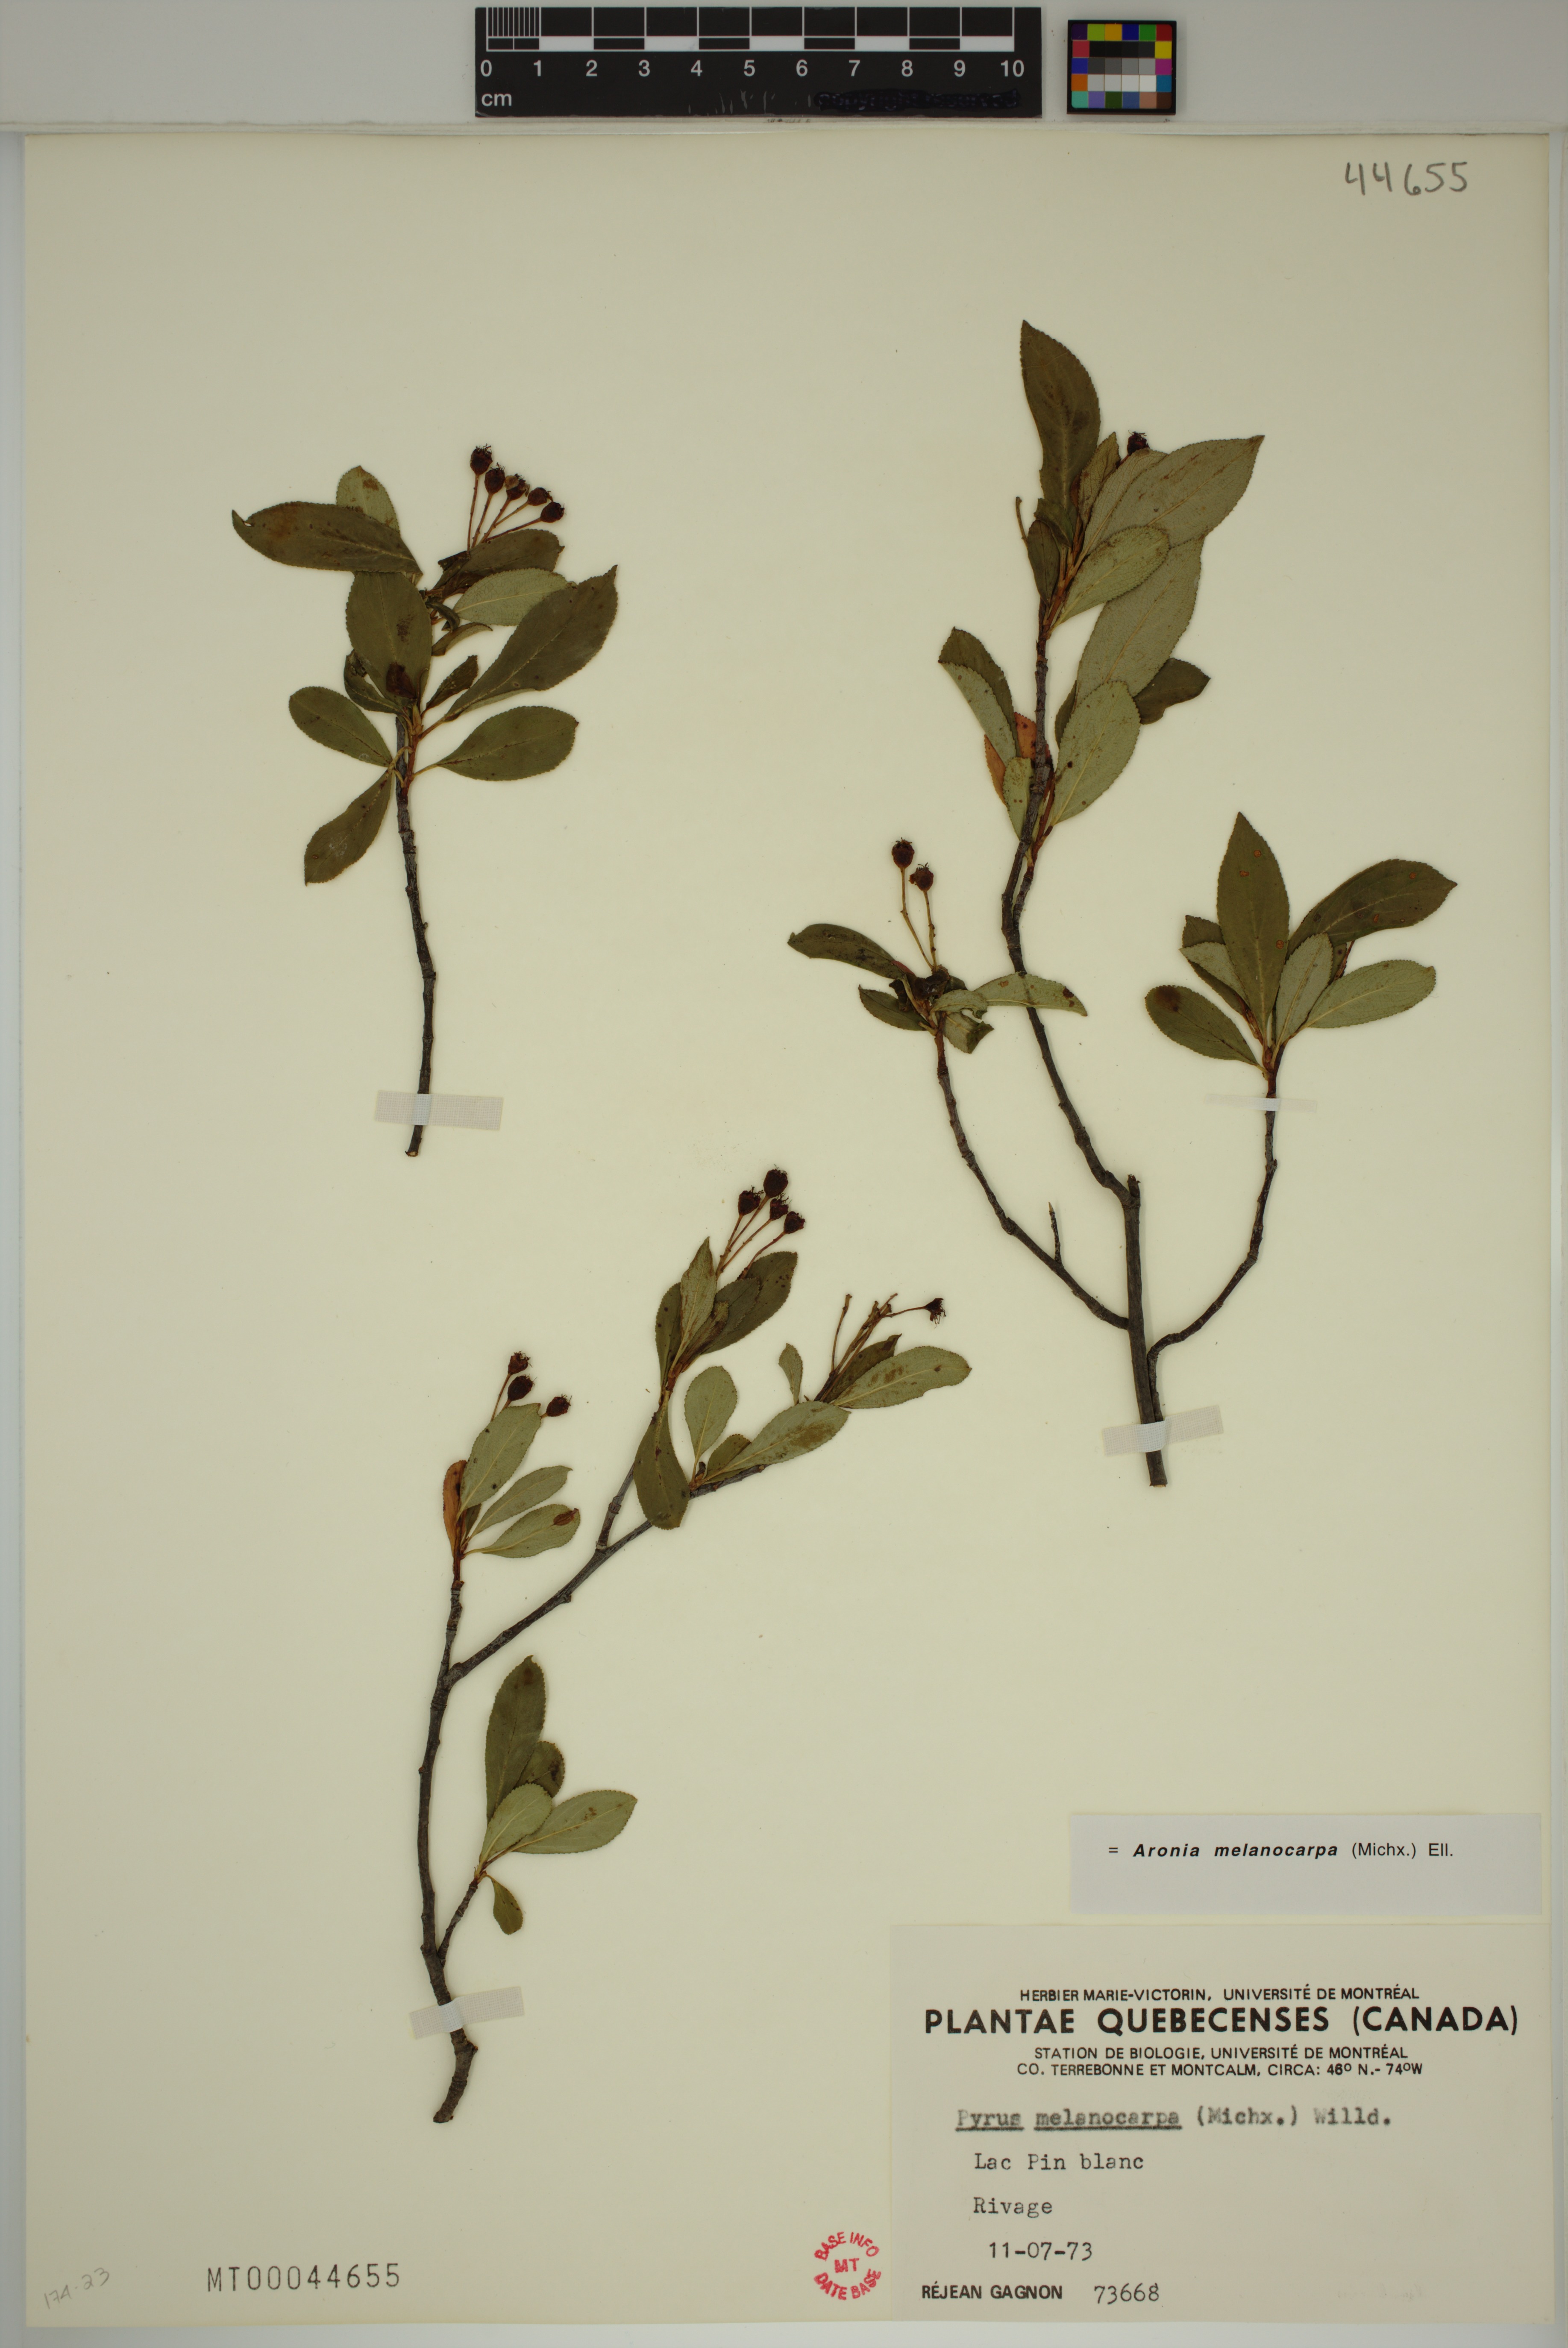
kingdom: Plantae
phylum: Tracheophyta
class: Magnoliopsida
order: Rosales
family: Rosaceae
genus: Aronia
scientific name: Aronia melanocarpa
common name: Black chokeberry
